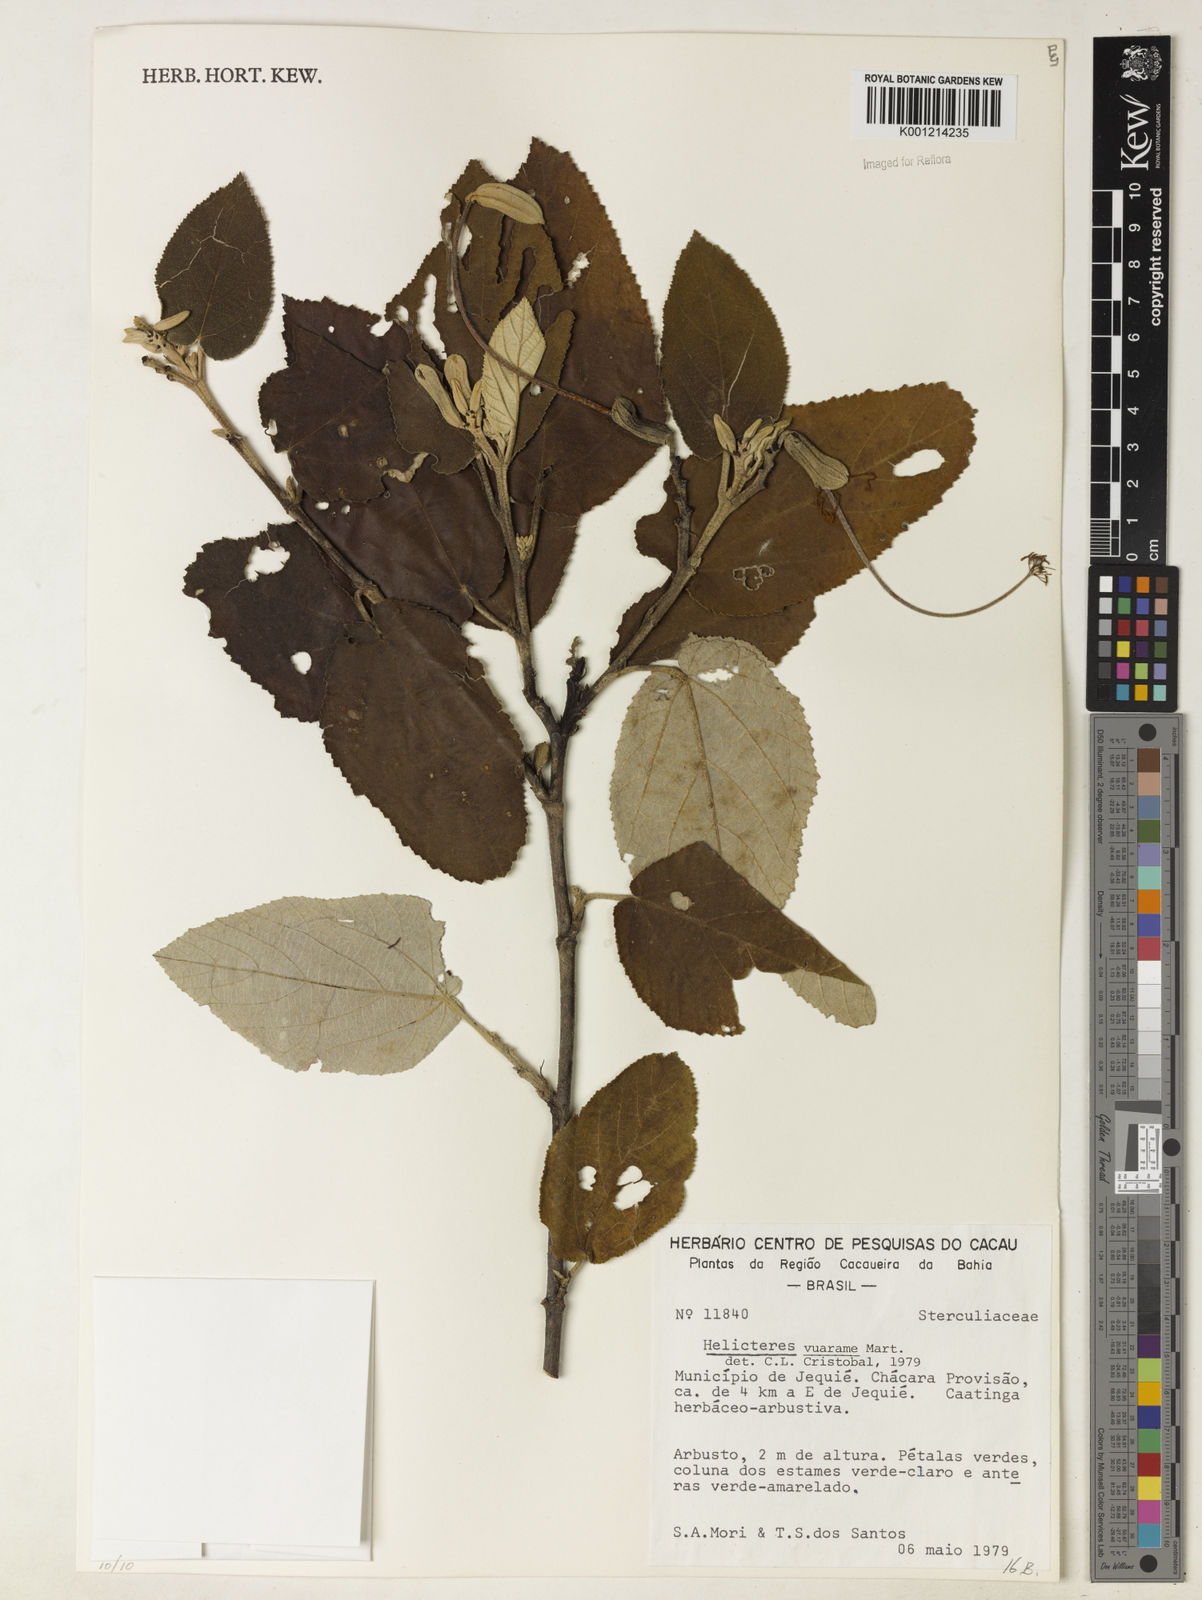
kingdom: Plantae
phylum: Tracheophyta
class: Magnoliopsida
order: Malvales
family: Malvaceae
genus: Helicteres
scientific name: Helicteres vuarame
